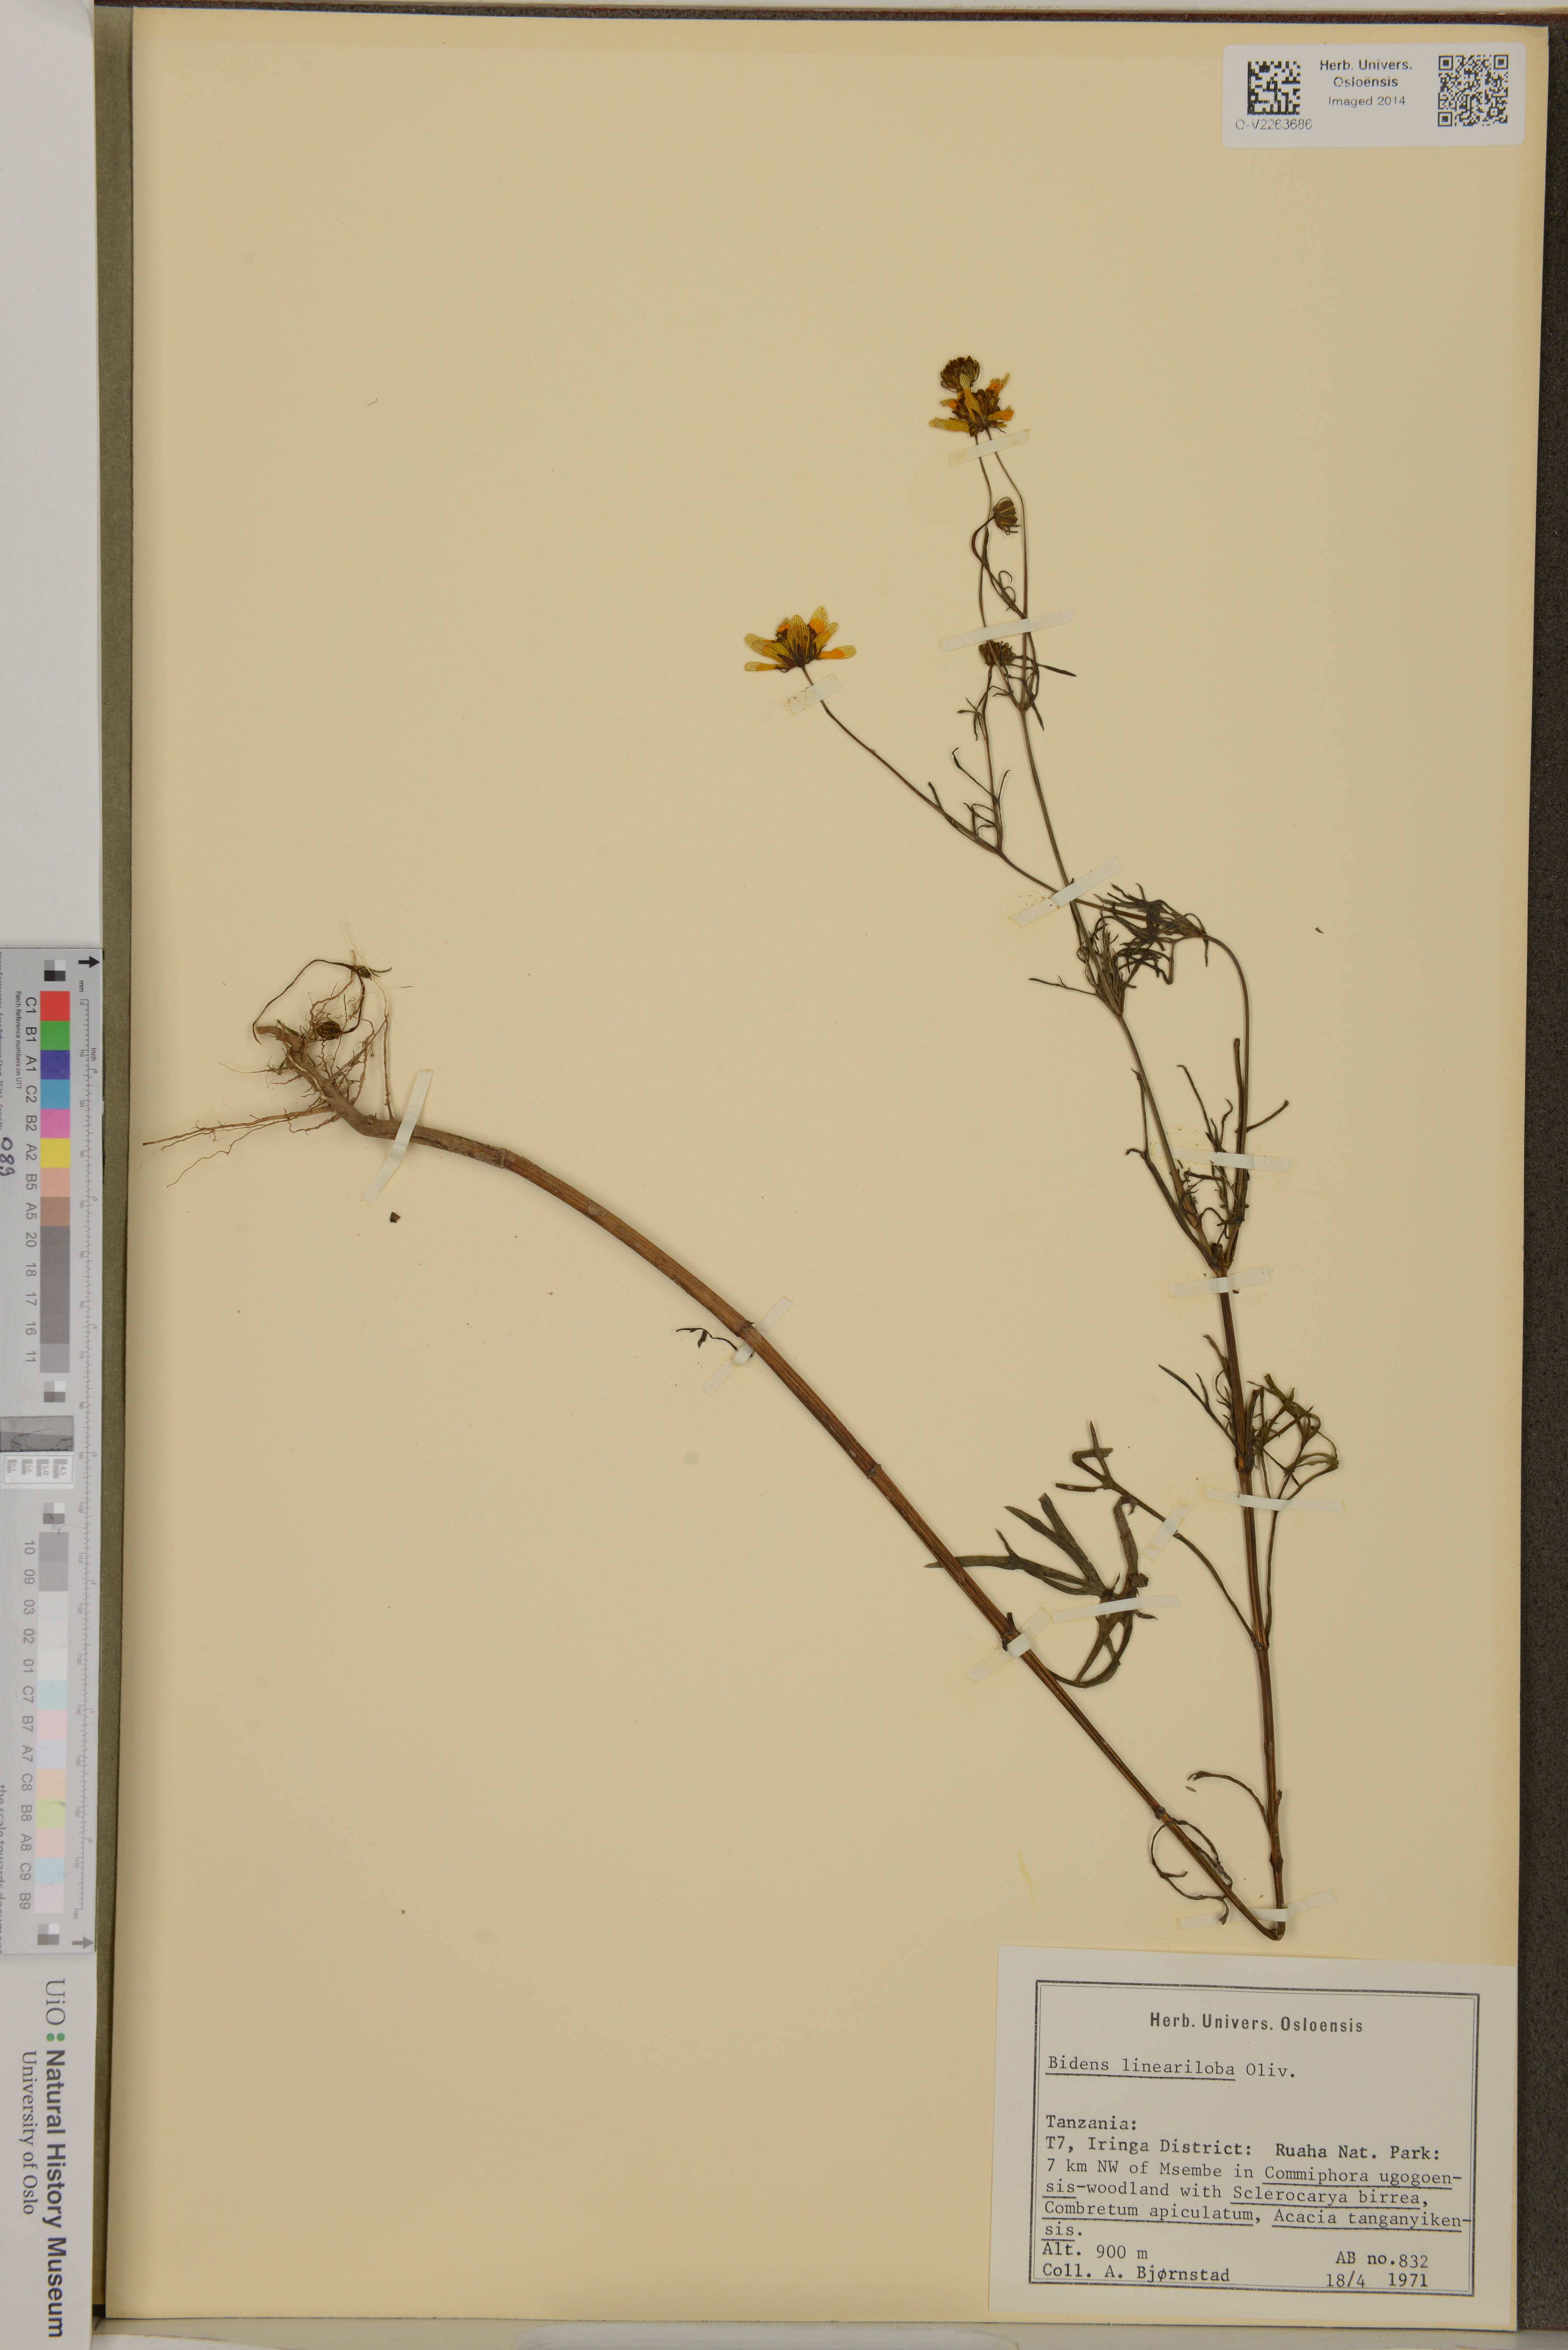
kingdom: Plantae
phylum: Tracheophyta
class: Magnoliopsida
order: Asterales
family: Asteraceae
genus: Bidens
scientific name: Bidens lineariloba
